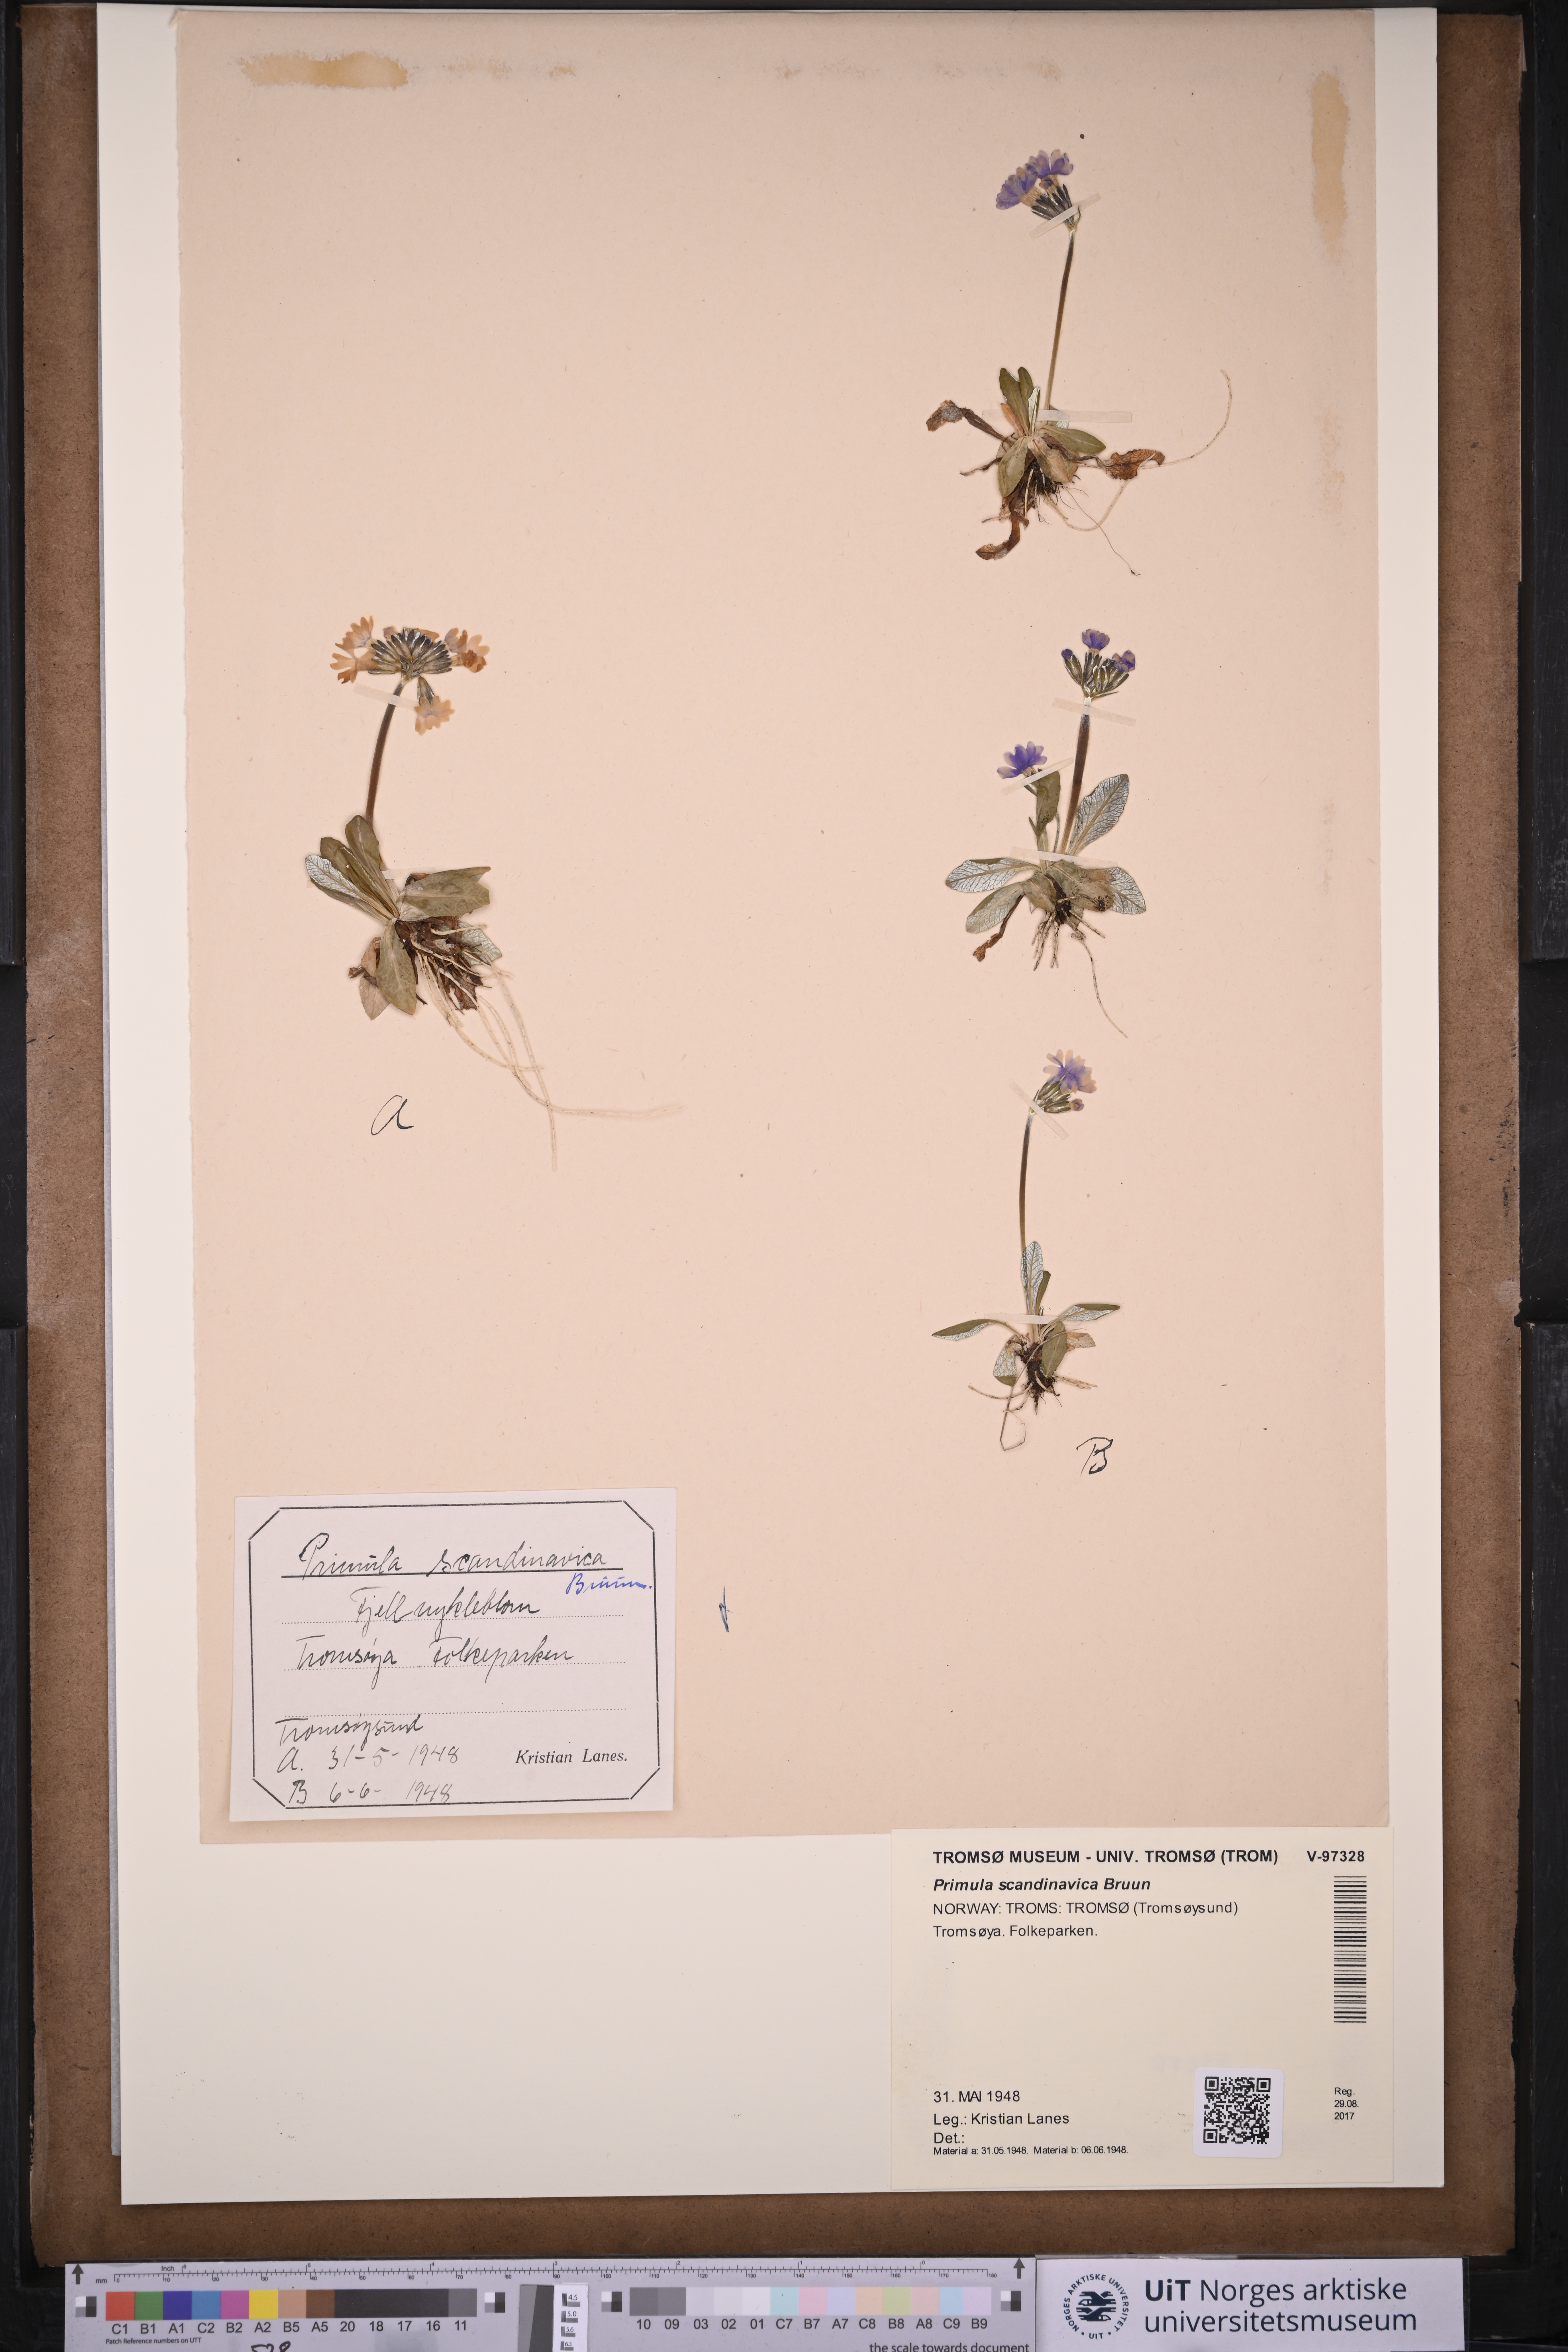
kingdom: Plantae
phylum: Tracheophyta
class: Magnoliopsida
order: Ericales
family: Primulaceae
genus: Primula
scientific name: Primula scandinavica
